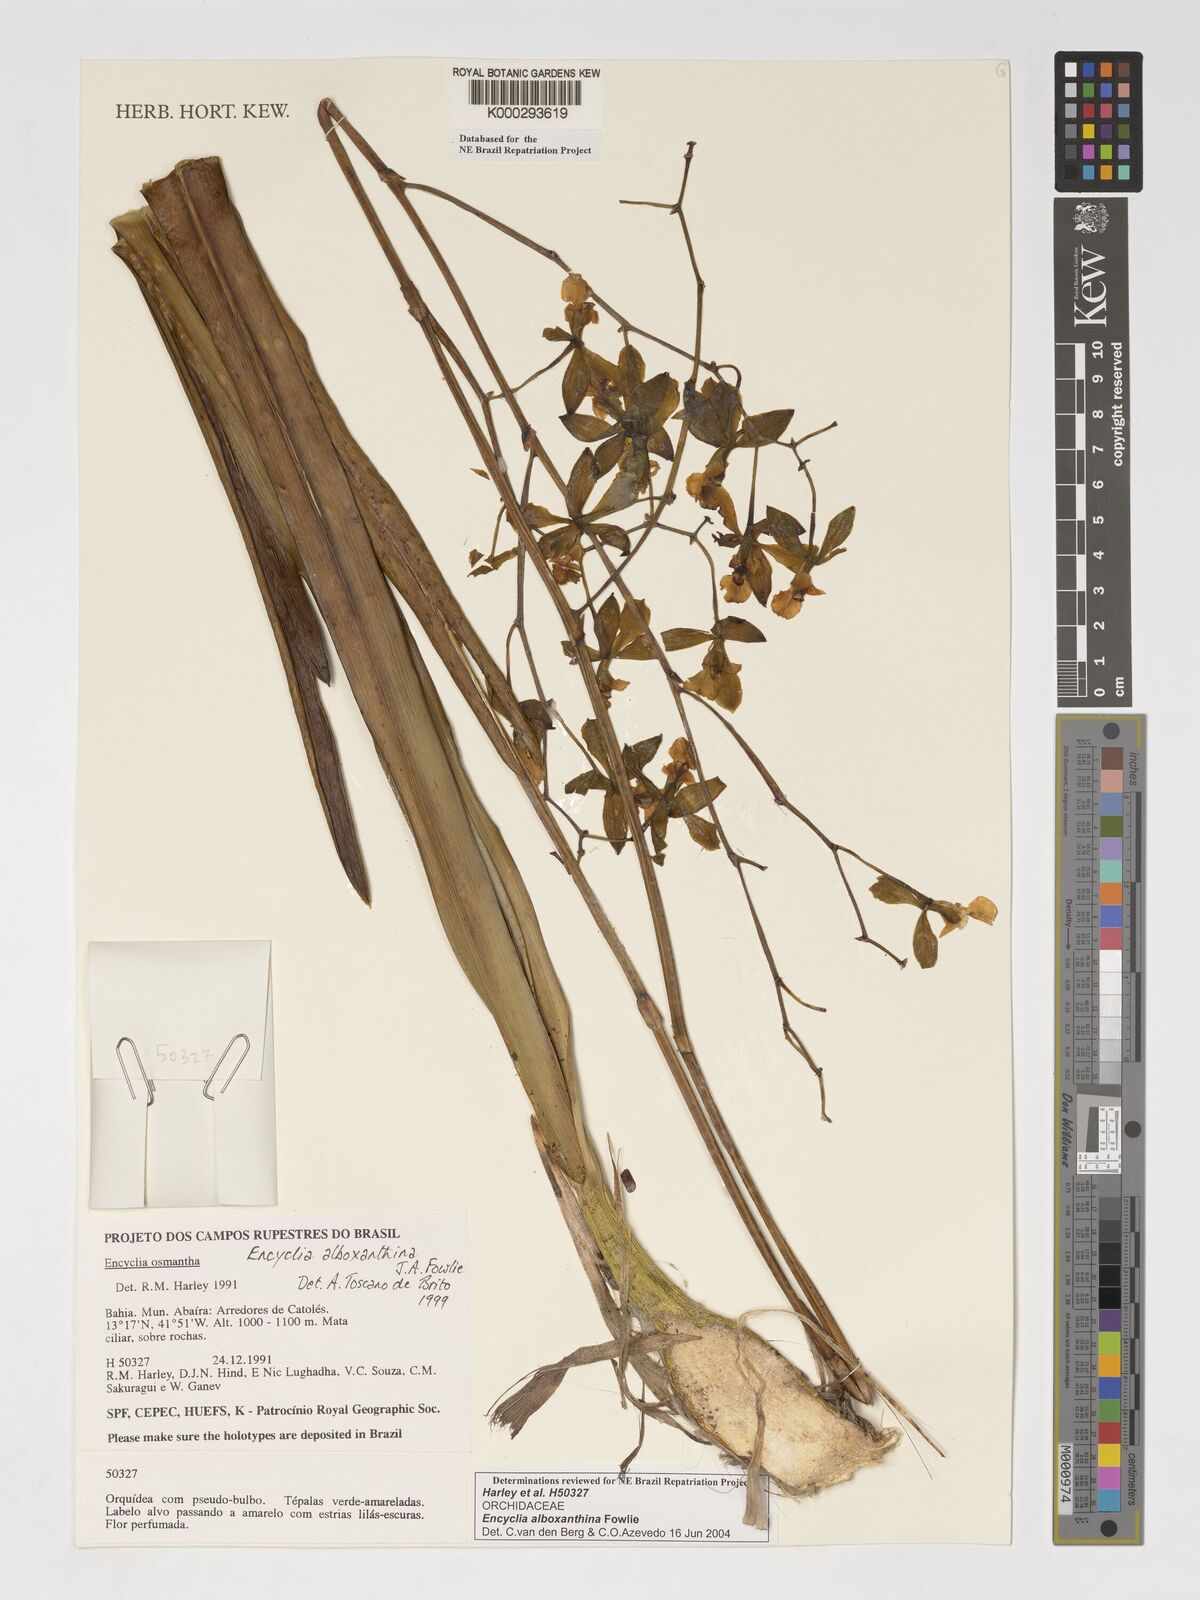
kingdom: Plantae
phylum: Tracheophyta
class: Liliopsida
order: Asparagales
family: Orchidaceae
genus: Encyclia
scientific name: Encyclia alboxanthina
